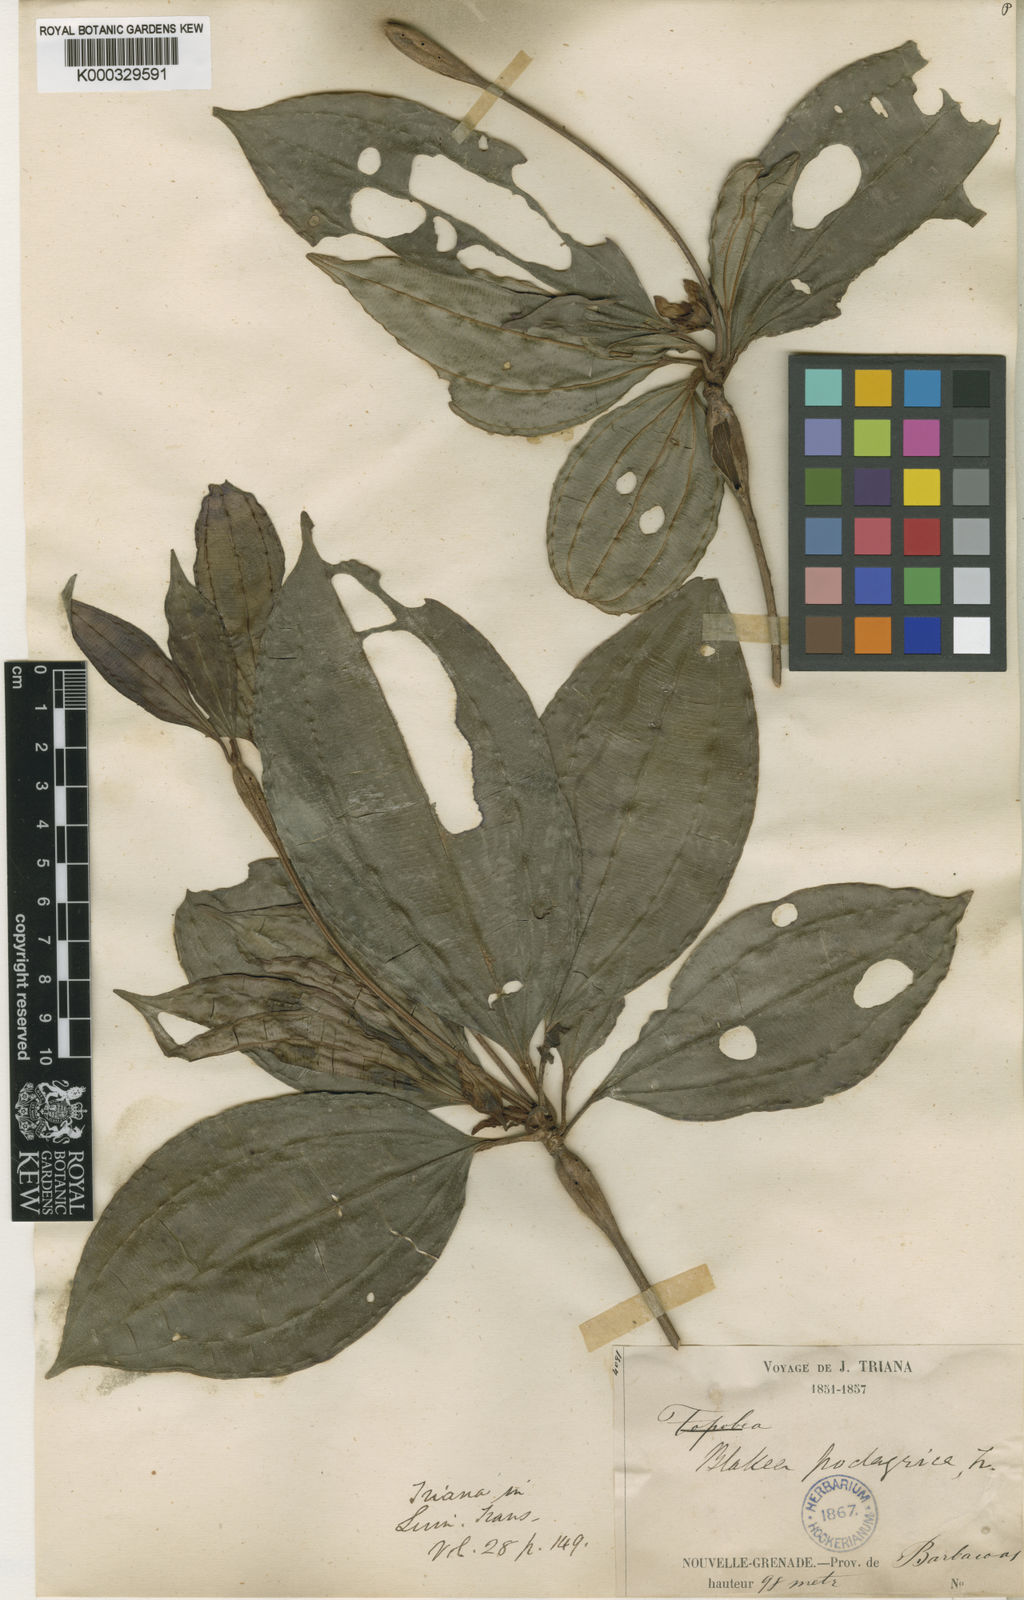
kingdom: Plantae
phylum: Tracheophyta
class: Magnoliopsida
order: Myrtales
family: Melastomataceae
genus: Blakea
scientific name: Blakea podagrica
